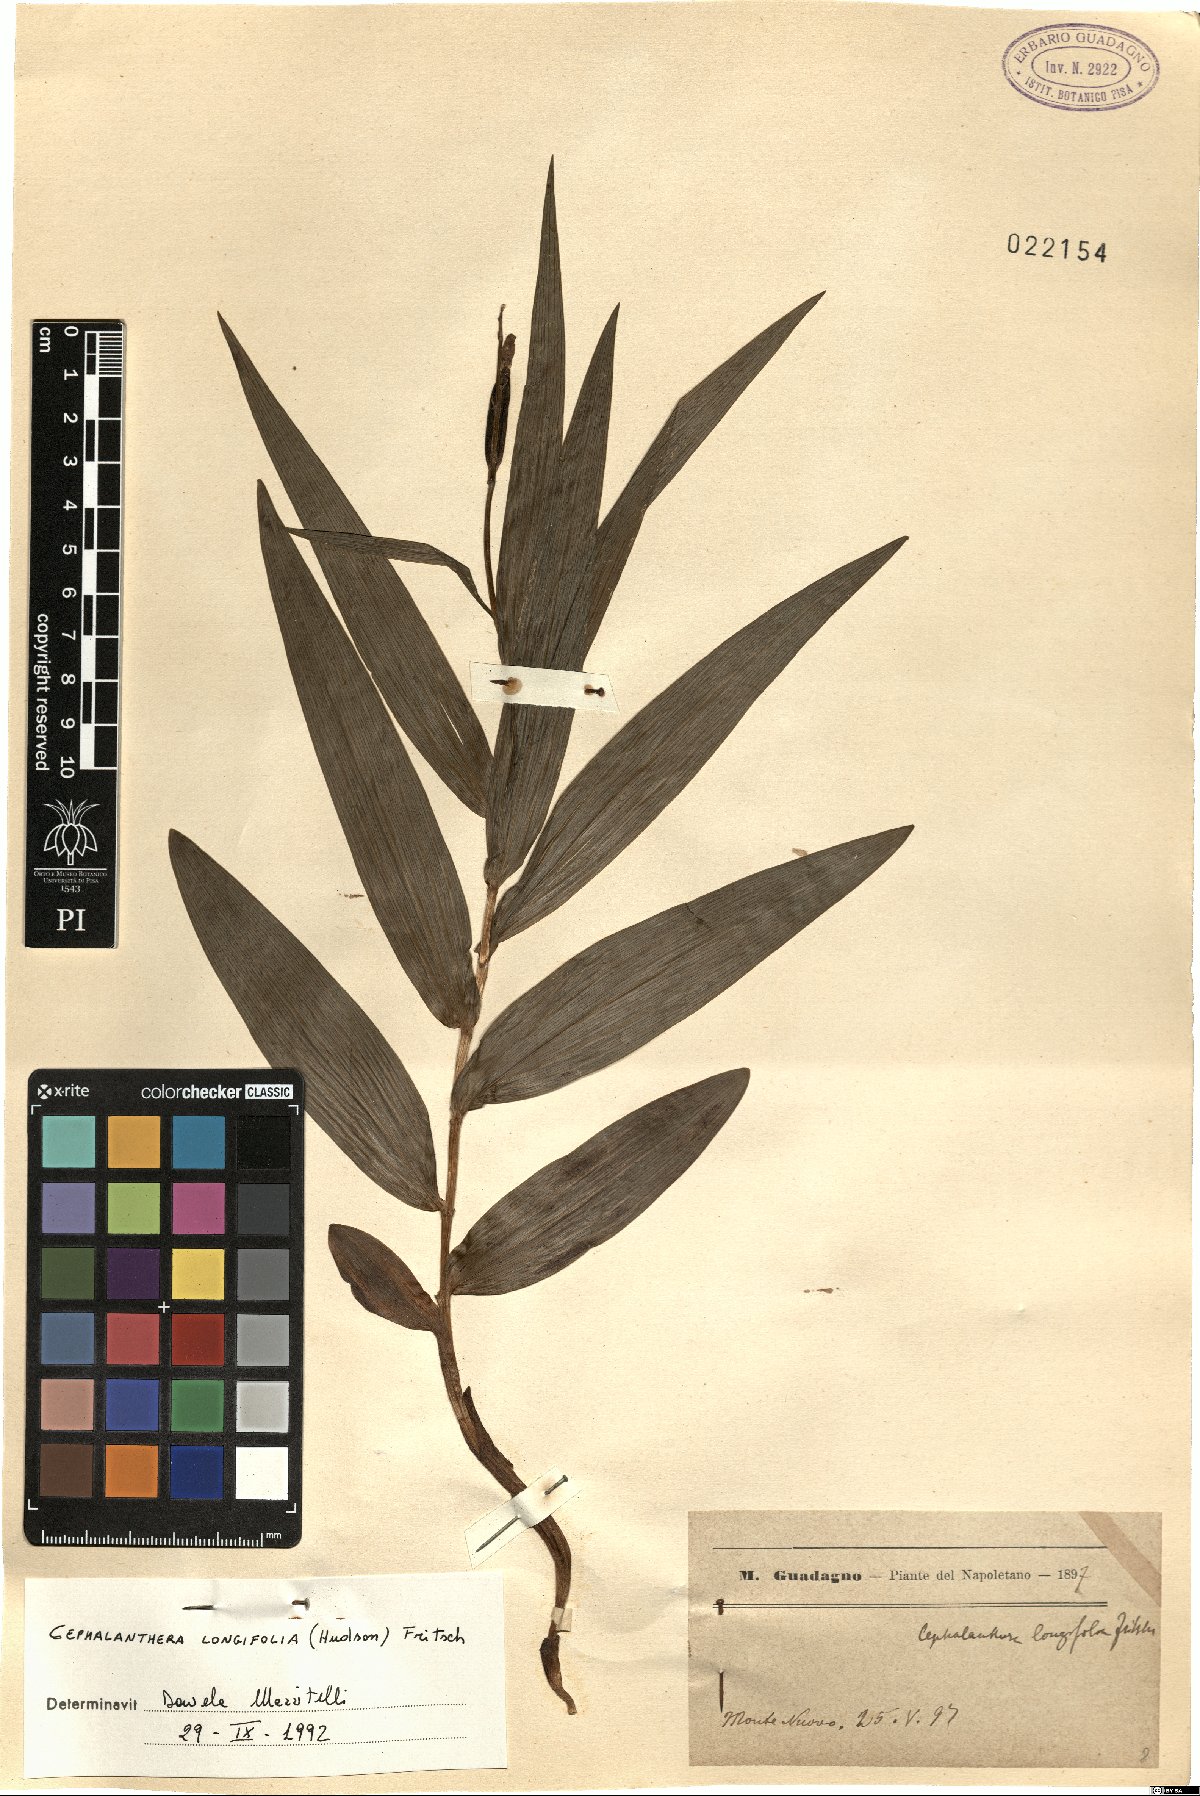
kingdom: Plantae
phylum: Tracheophyta
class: Liliopsida
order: Asparagales
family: Orchidaceae
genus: Cephalanthera
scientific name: Cephalanthera longifolia
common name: Narrow-leaved helleborine
